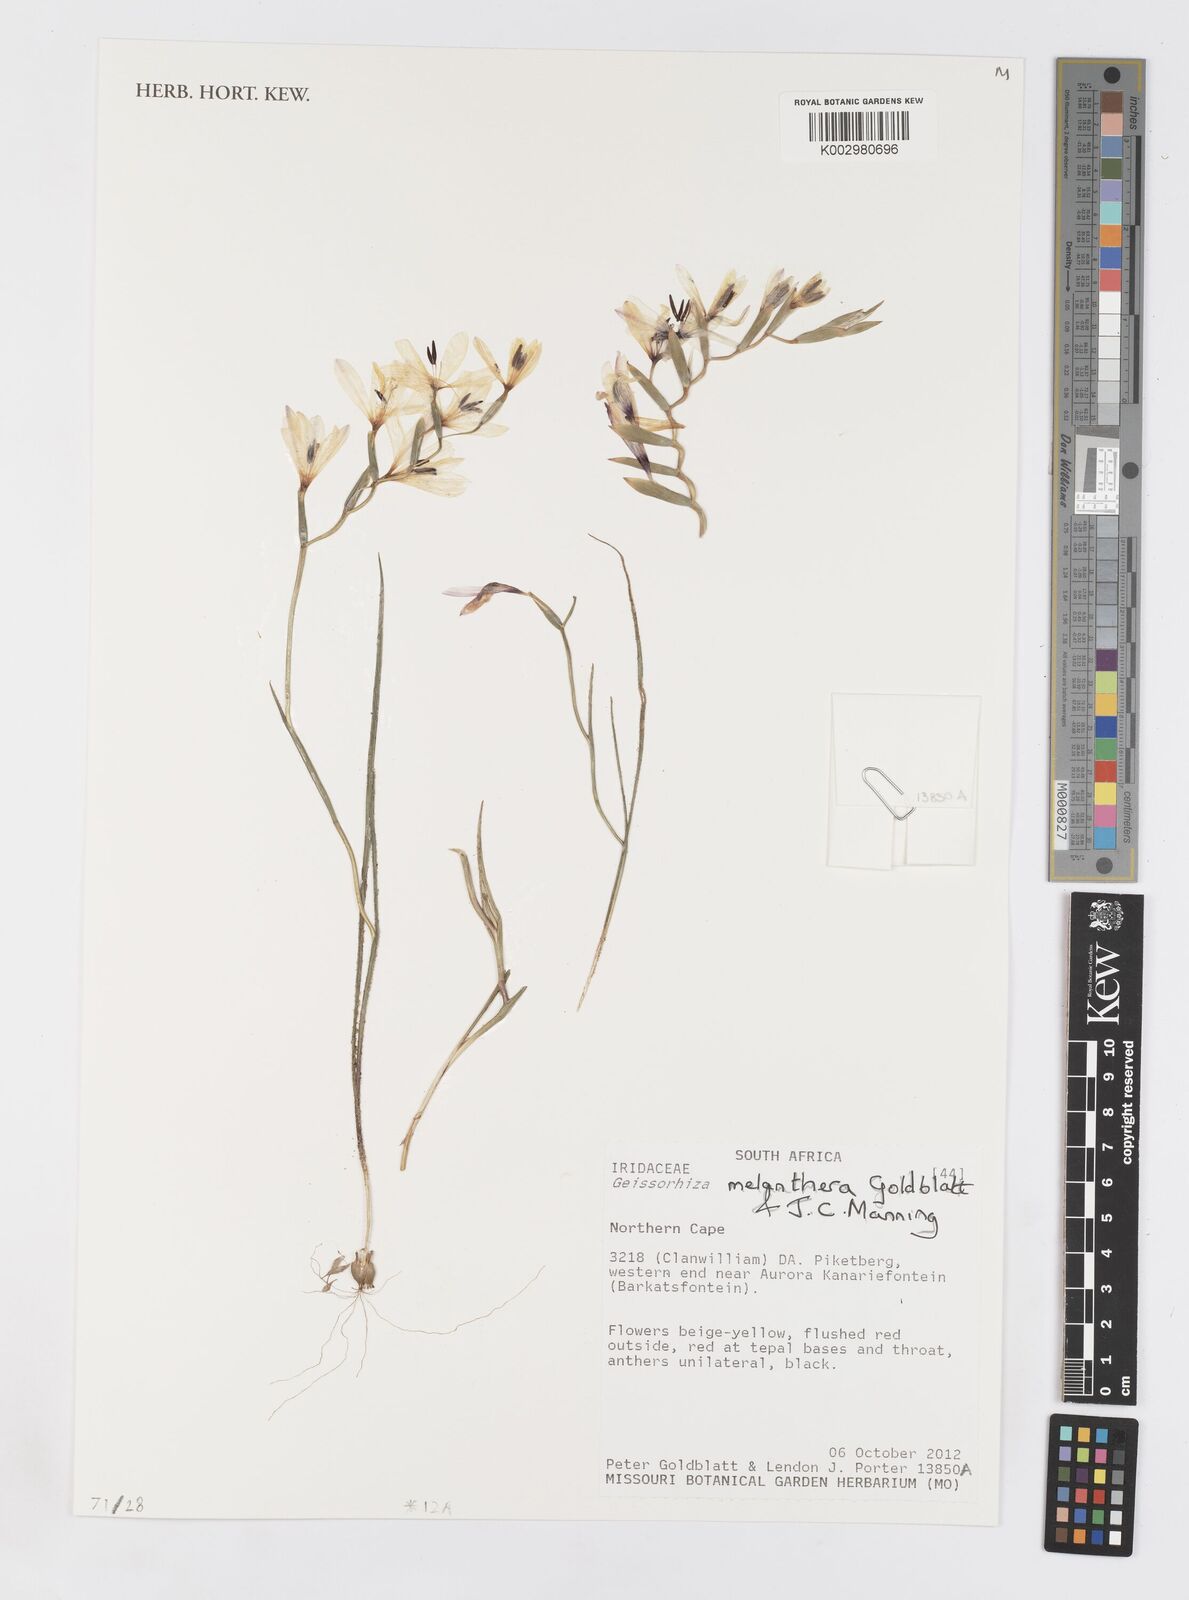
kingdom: Plantae
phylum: Tracheophyta
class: Liliopsida
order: Asparagales
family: Iridaceae
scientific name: Iridaceae
